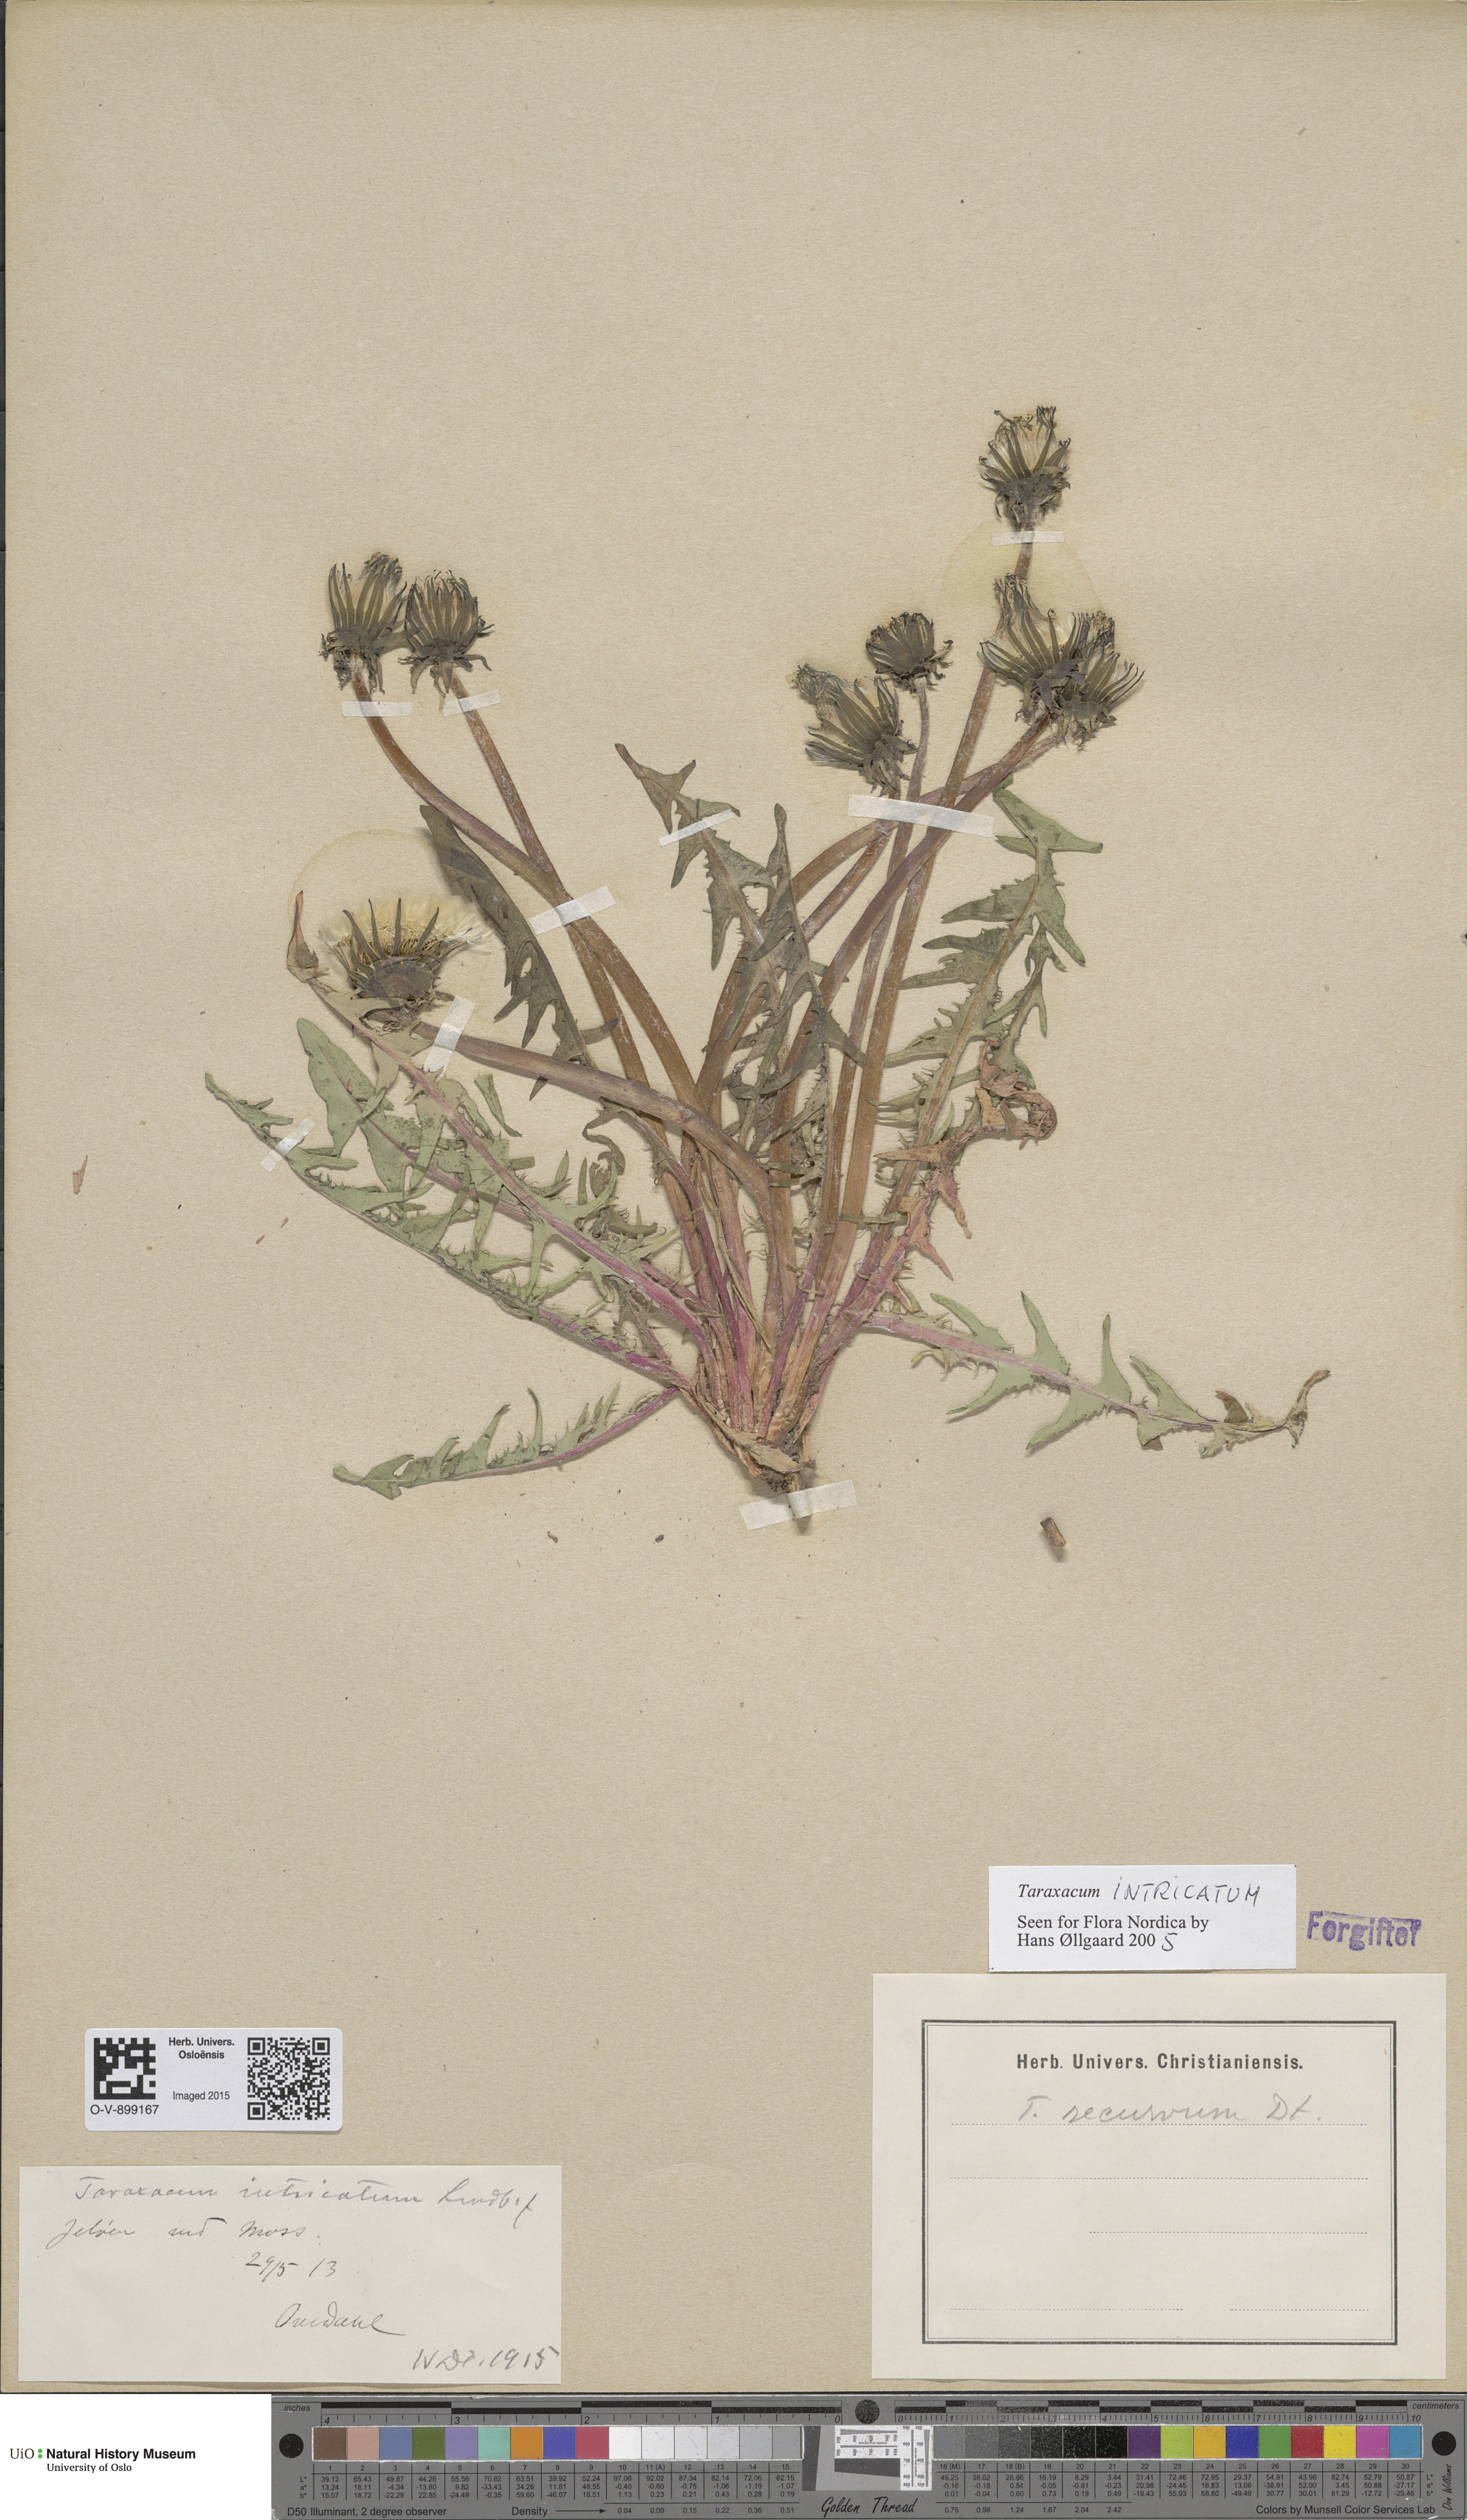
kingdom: Plantae
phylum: Tracheophyta
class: Magnoliopsida
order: Asterales
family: Asteraceae
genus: Taraxacum
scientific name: Taraxacum recurvum
